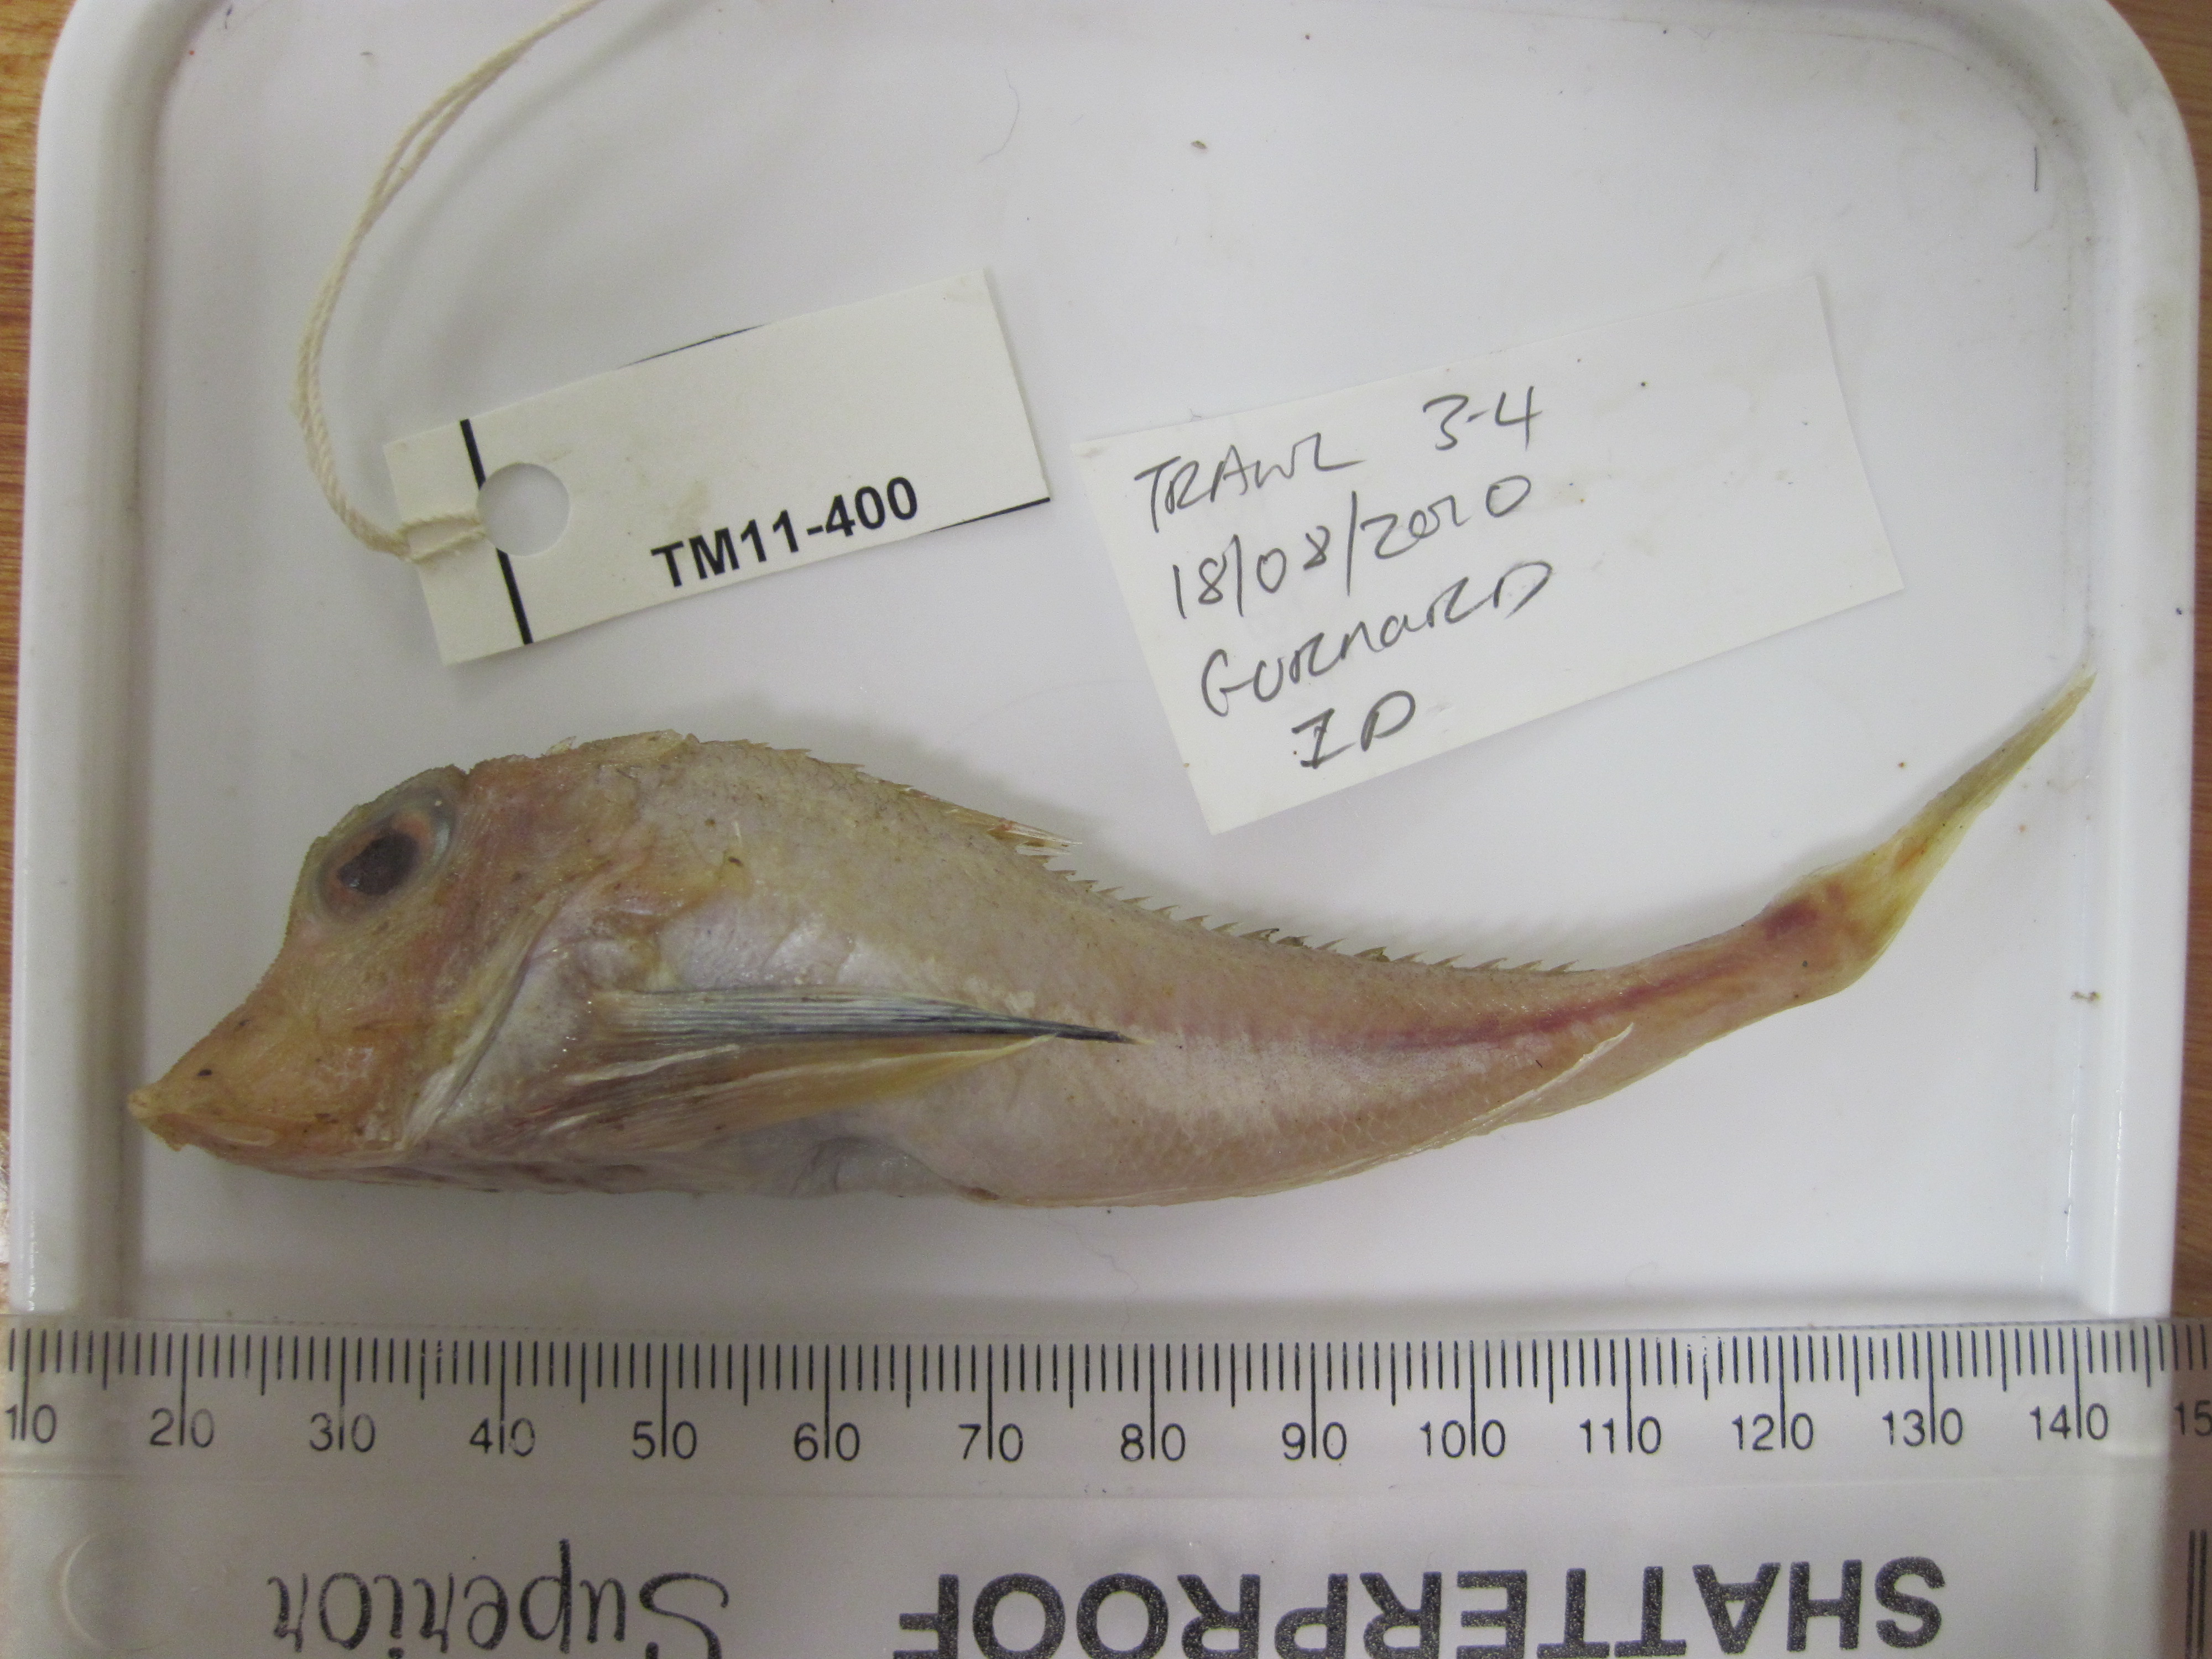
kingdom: Animalia
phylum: Chordata
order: Scorpaeniformes
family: Triglidae
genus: Lepidotrigla
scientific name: Lepidotrigla multispinosa
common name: Spiny gurnard
